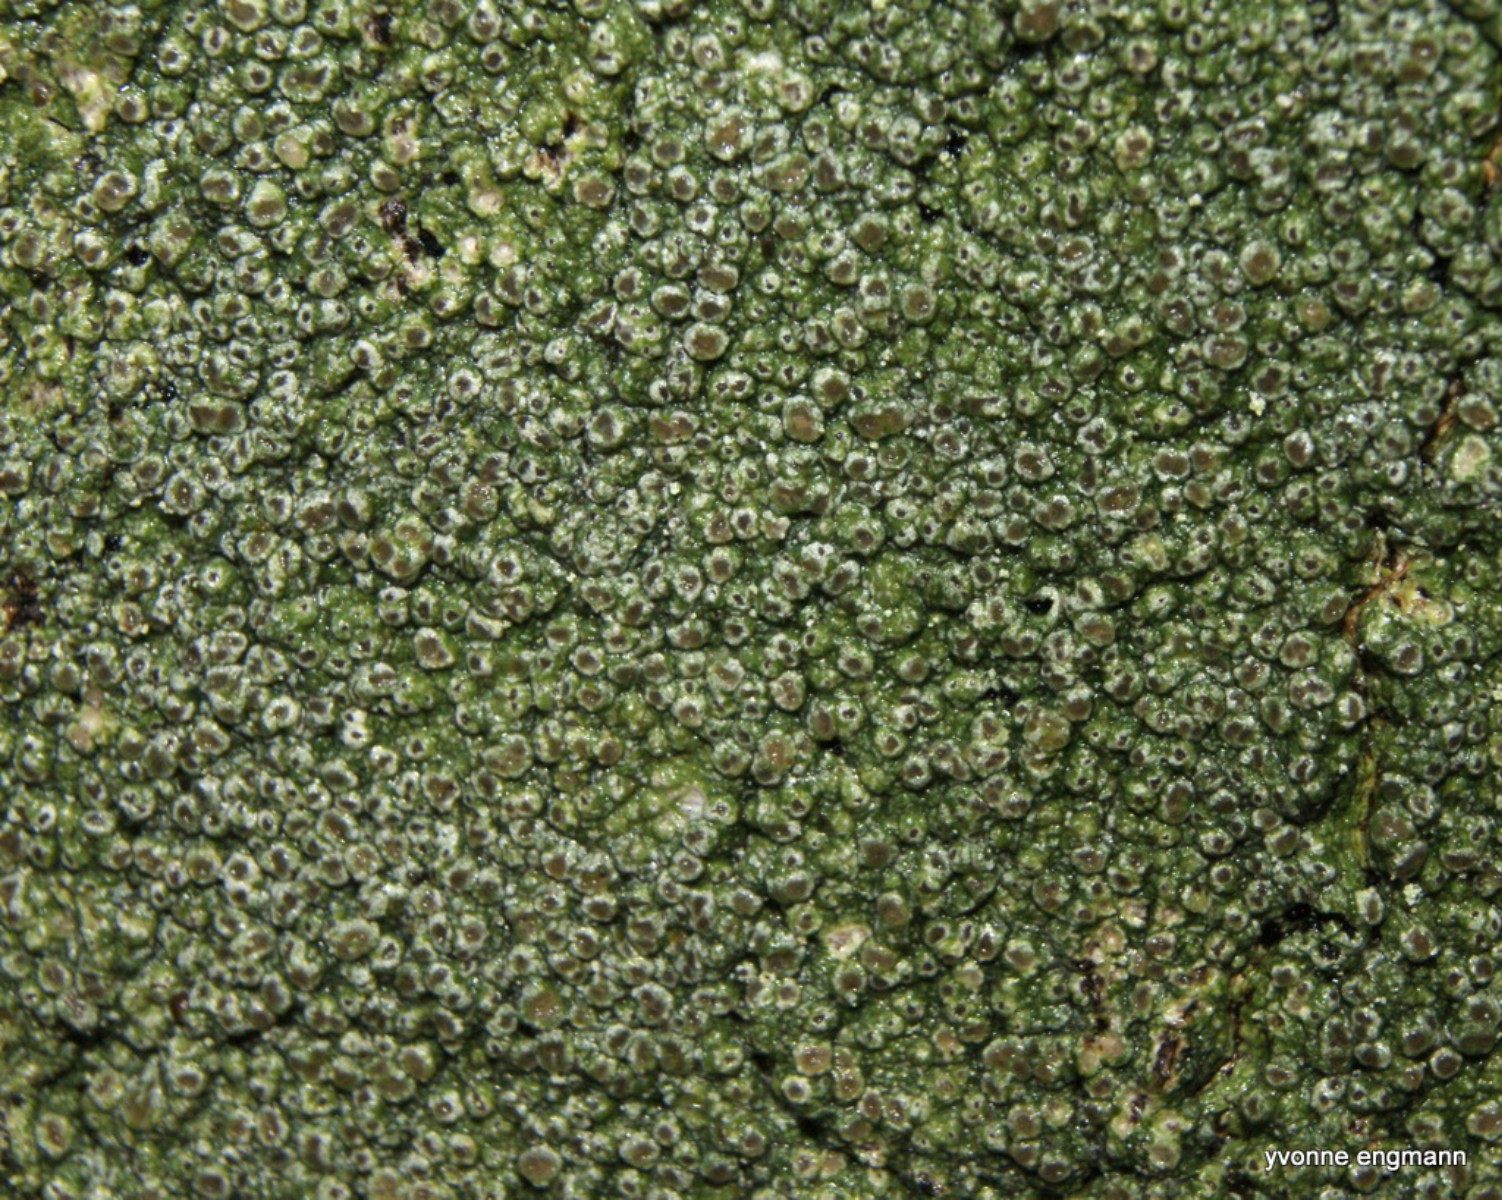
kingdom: Fungi
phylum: Ascomycota
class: Lecanoromycetes
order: Pertusariales
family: Pertusariaceae
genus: Pertusaria
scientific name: Pertusaria hymenea
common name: åben prikvortelav
